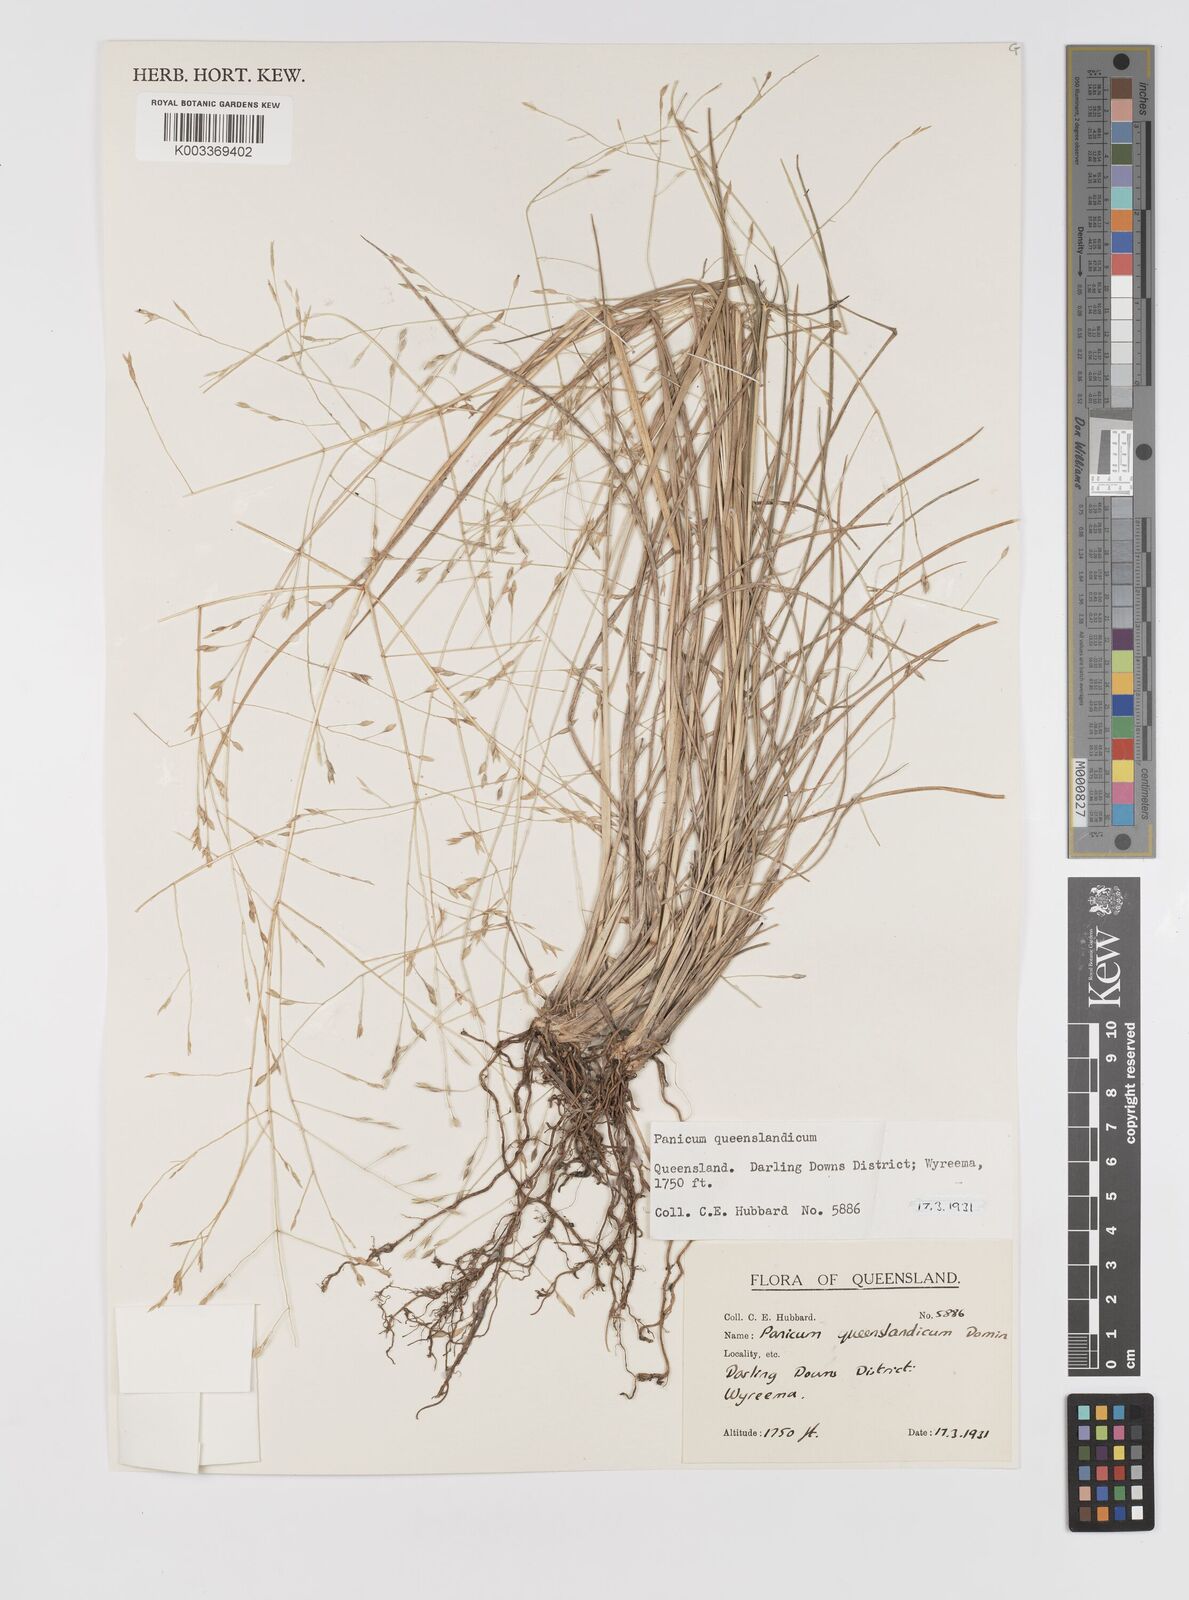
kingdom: Plantae
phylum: Tracheophyta
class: Liliopsida
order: Poales
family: Poaceae
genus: Panicum
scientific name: Panicum queenslandicum
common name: Yabila grass
